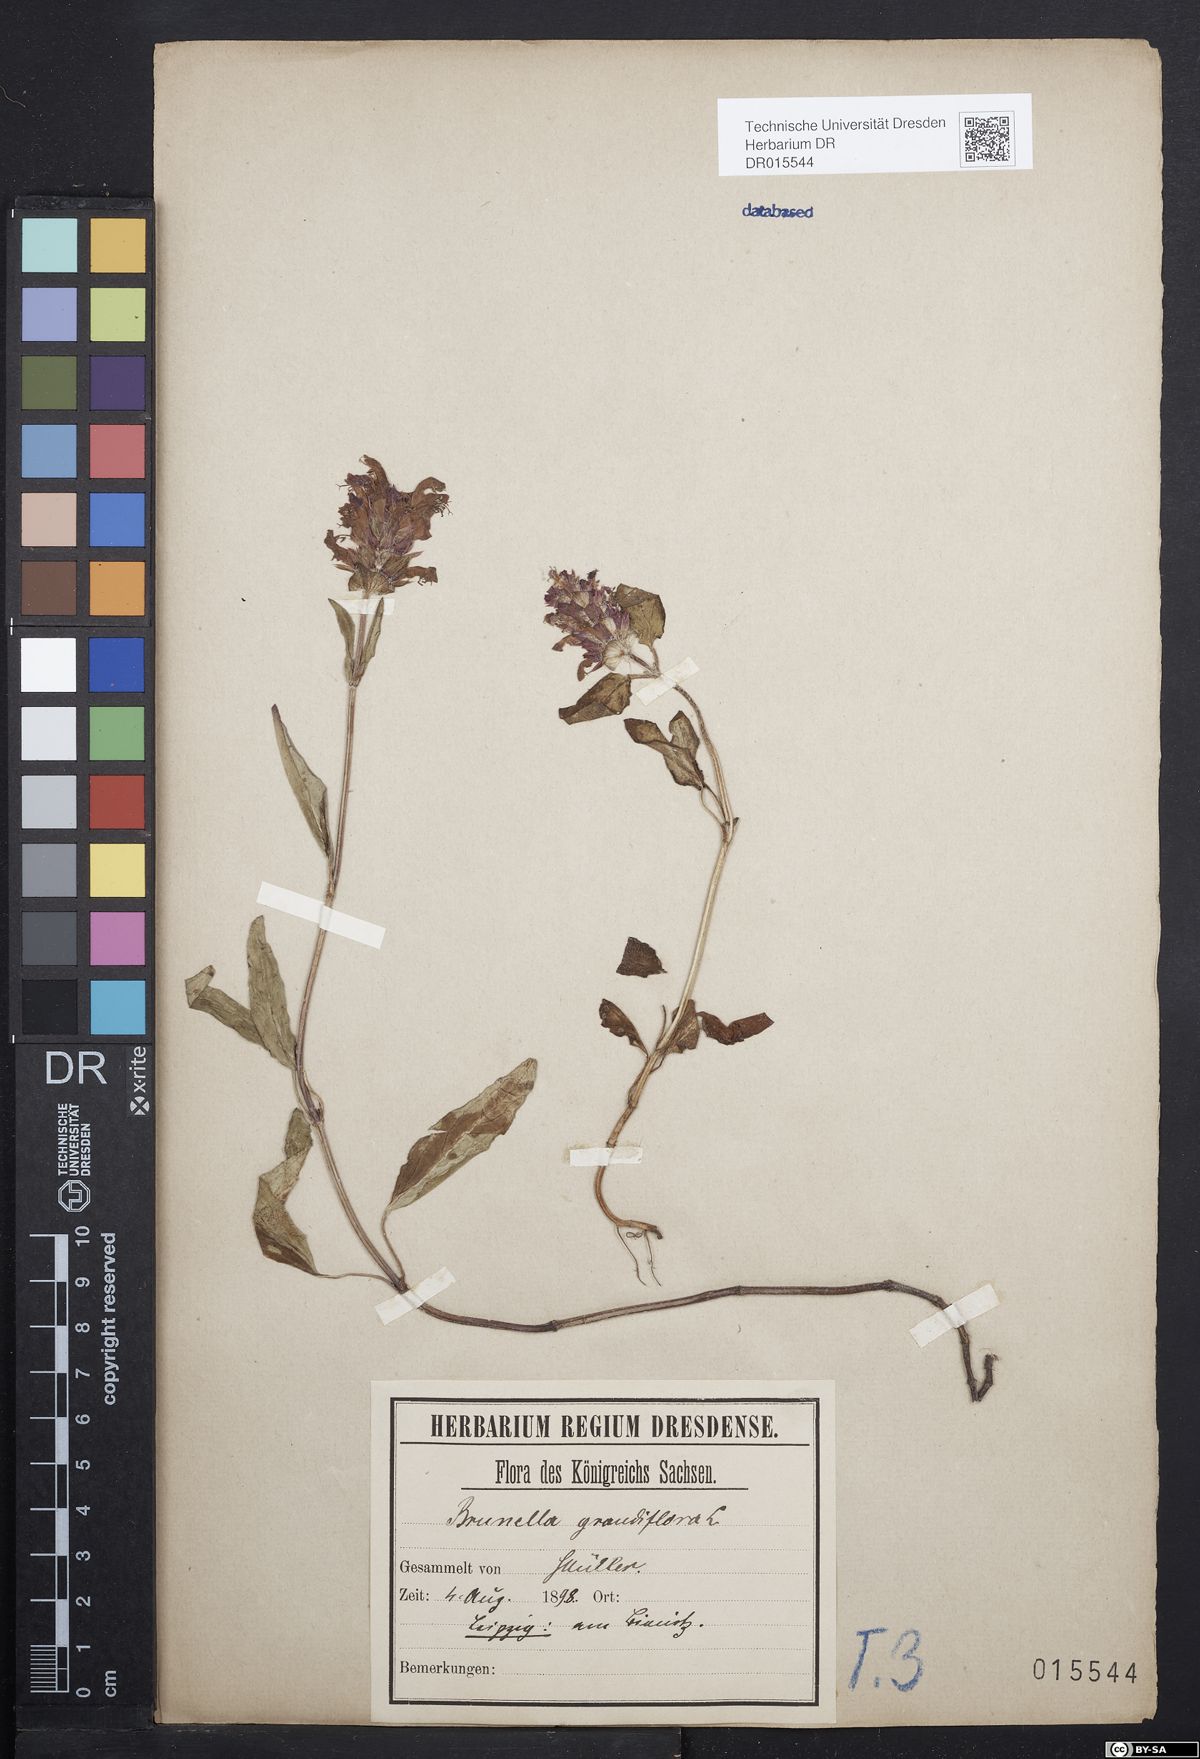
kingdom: Plantae
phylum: Tracheophyta
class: Magnoliopsida
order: Lamiales
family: Lamiaceae
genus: Prunella
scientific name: Prunella grandiflora
